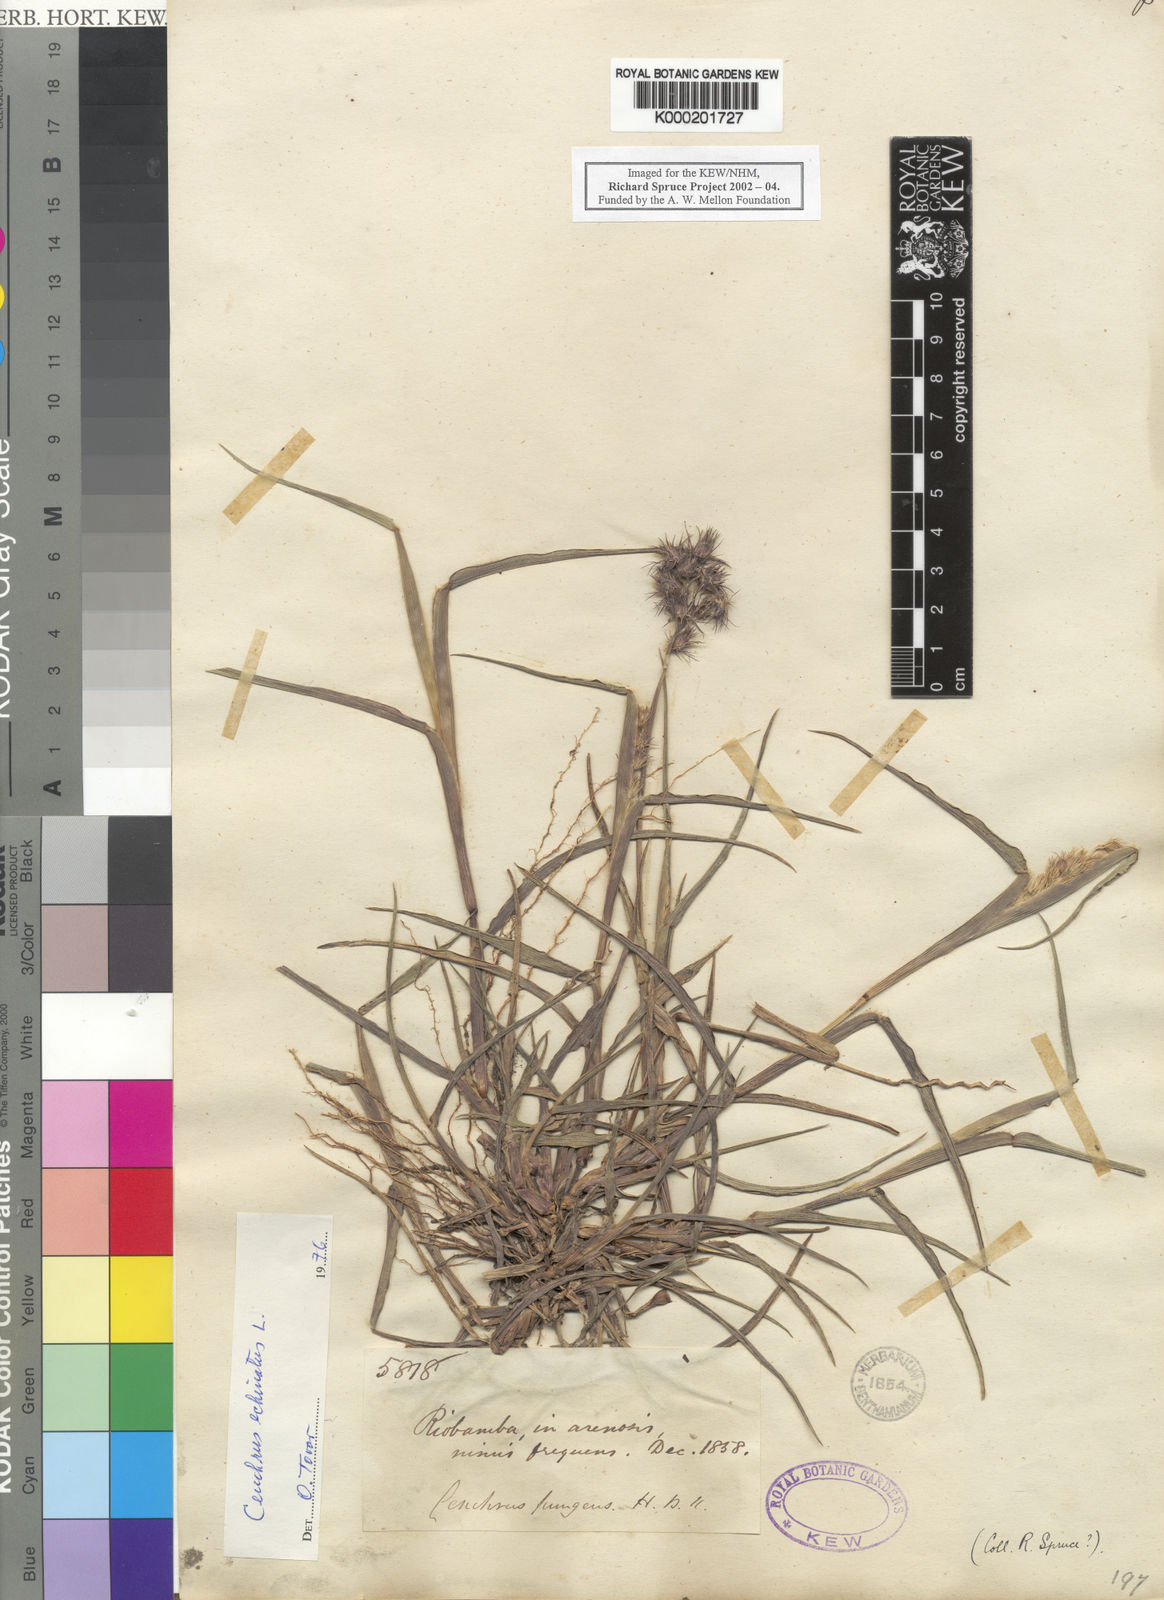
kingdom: Plantae
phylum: Tracheophyta
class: Liliopsida
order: Poales
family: Poaceae
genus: Cenchrus
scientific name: Cenchrus echinatus
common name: Southern sandbur
